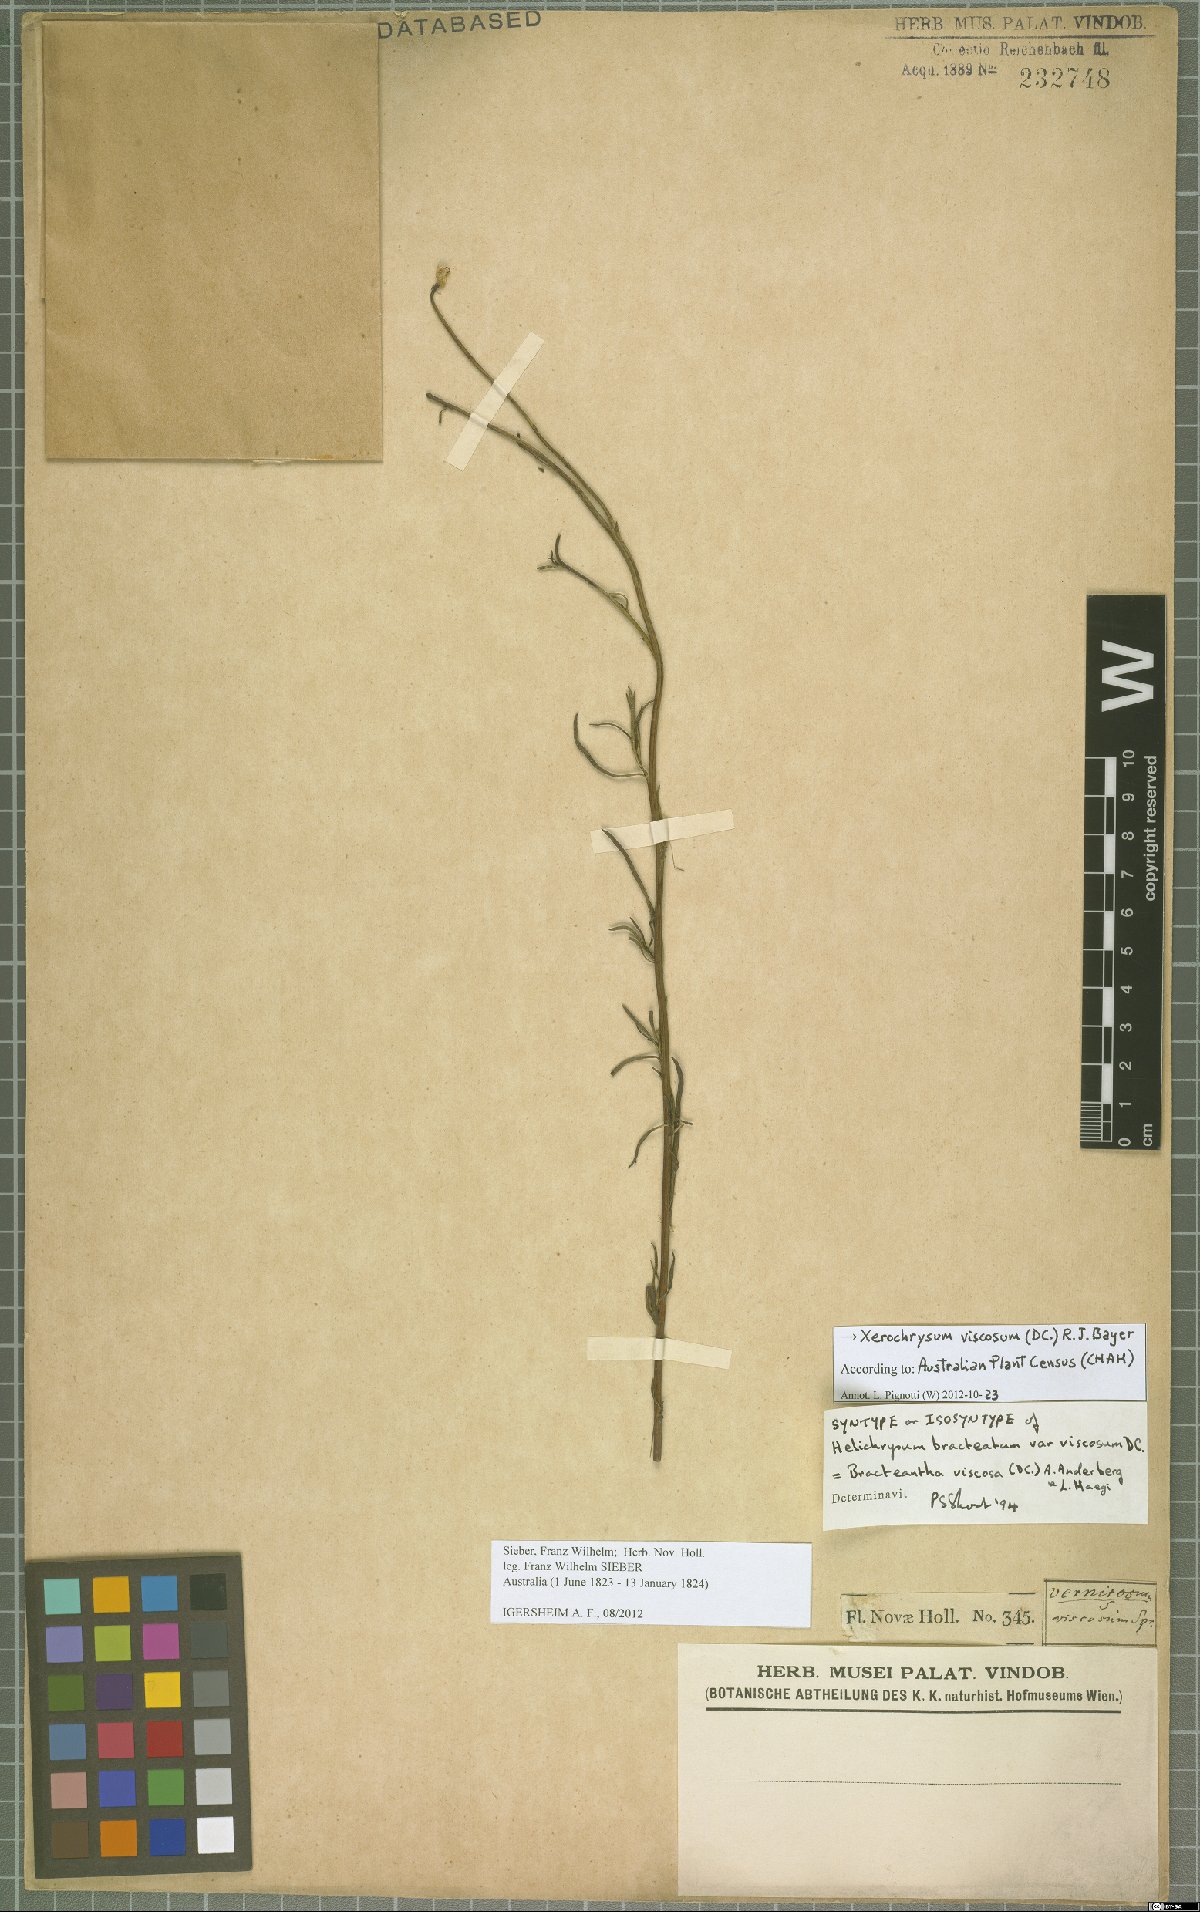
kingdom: Plantae
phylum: Tracheophyta
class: Magnoliopsida
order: Asterales
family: Asteraceae
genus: Xerochrysum
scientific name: Xerochrysum viscosum
